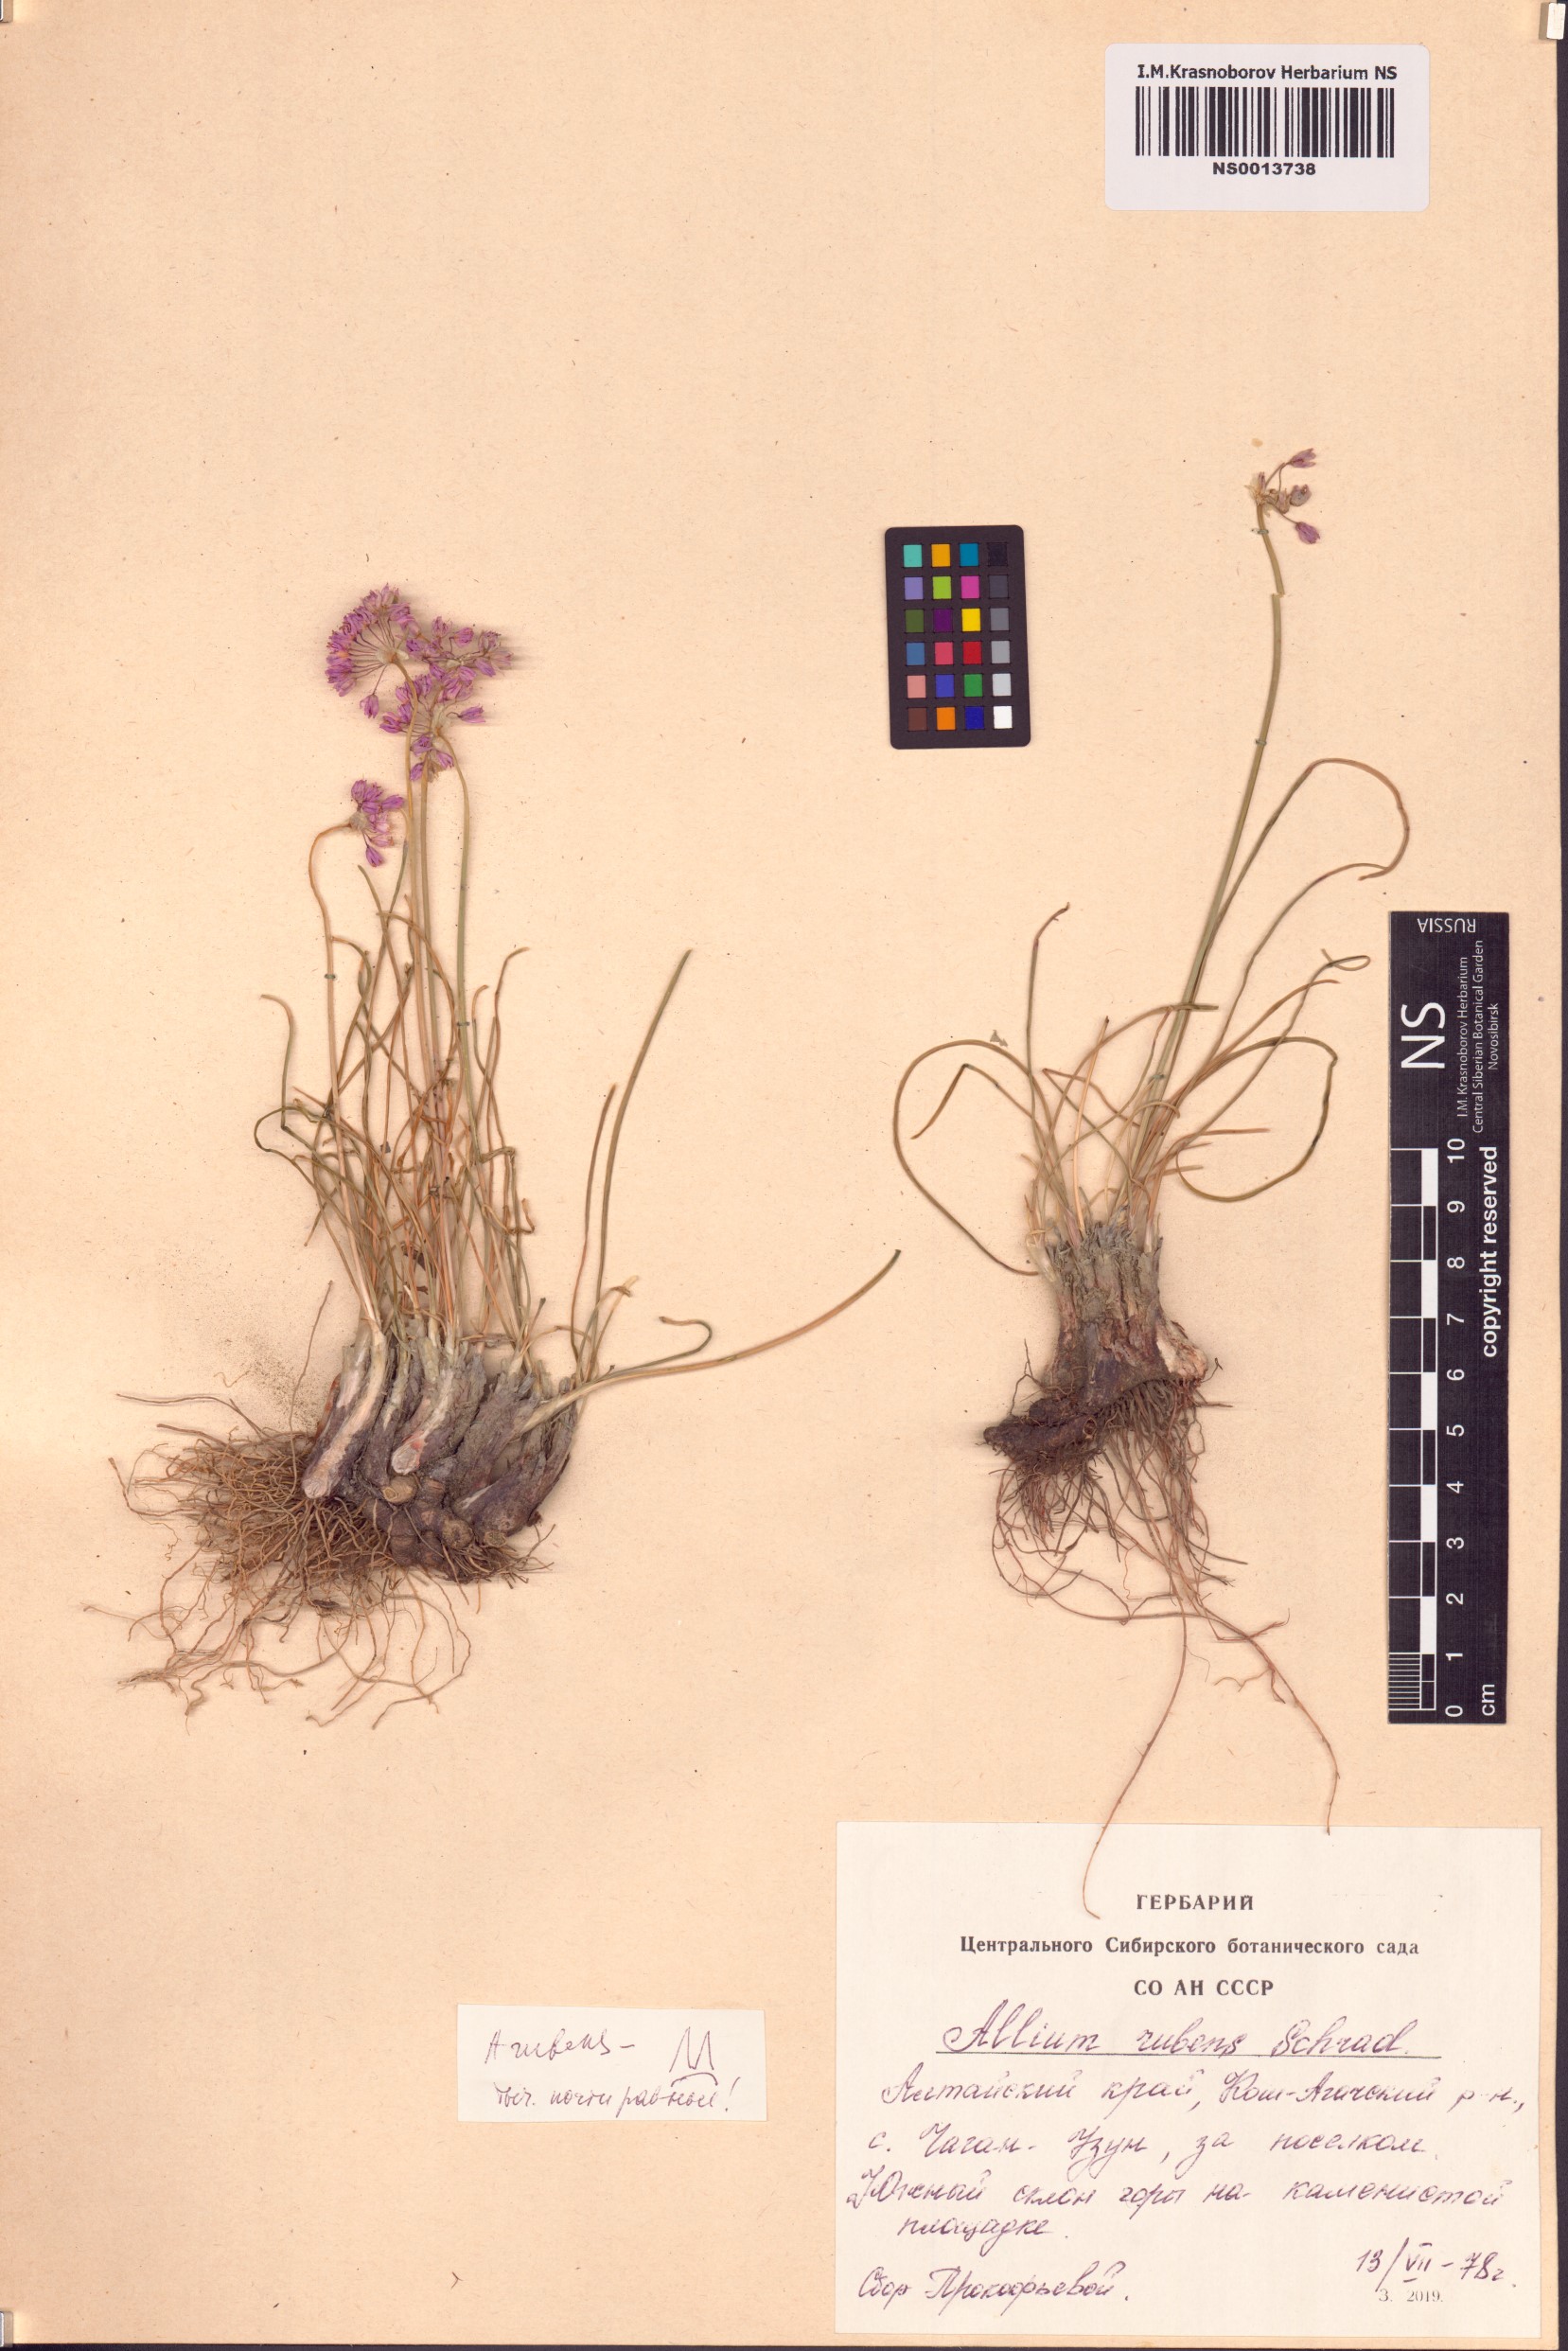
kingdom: Plantae
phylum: Tracheophyta
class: Liliopsida
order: Asparagales
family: Amaryllidaceae
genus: Allium
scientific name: Allium rubens
